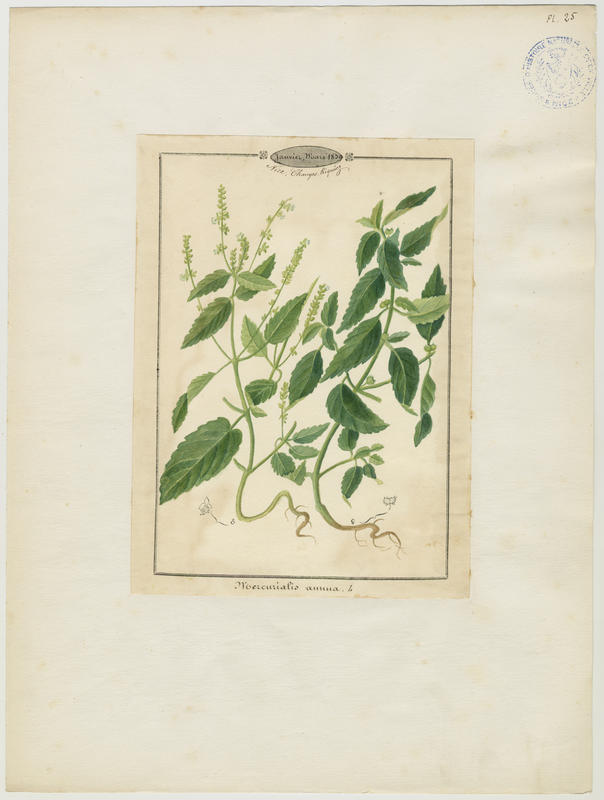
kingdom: Plantae
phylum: Tracheophyta
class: Magnoliopsida
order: Malpighiales
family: Euphorbiaceae
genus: Mercurialis
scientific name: Mercurialis annua
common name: Annual mercury
